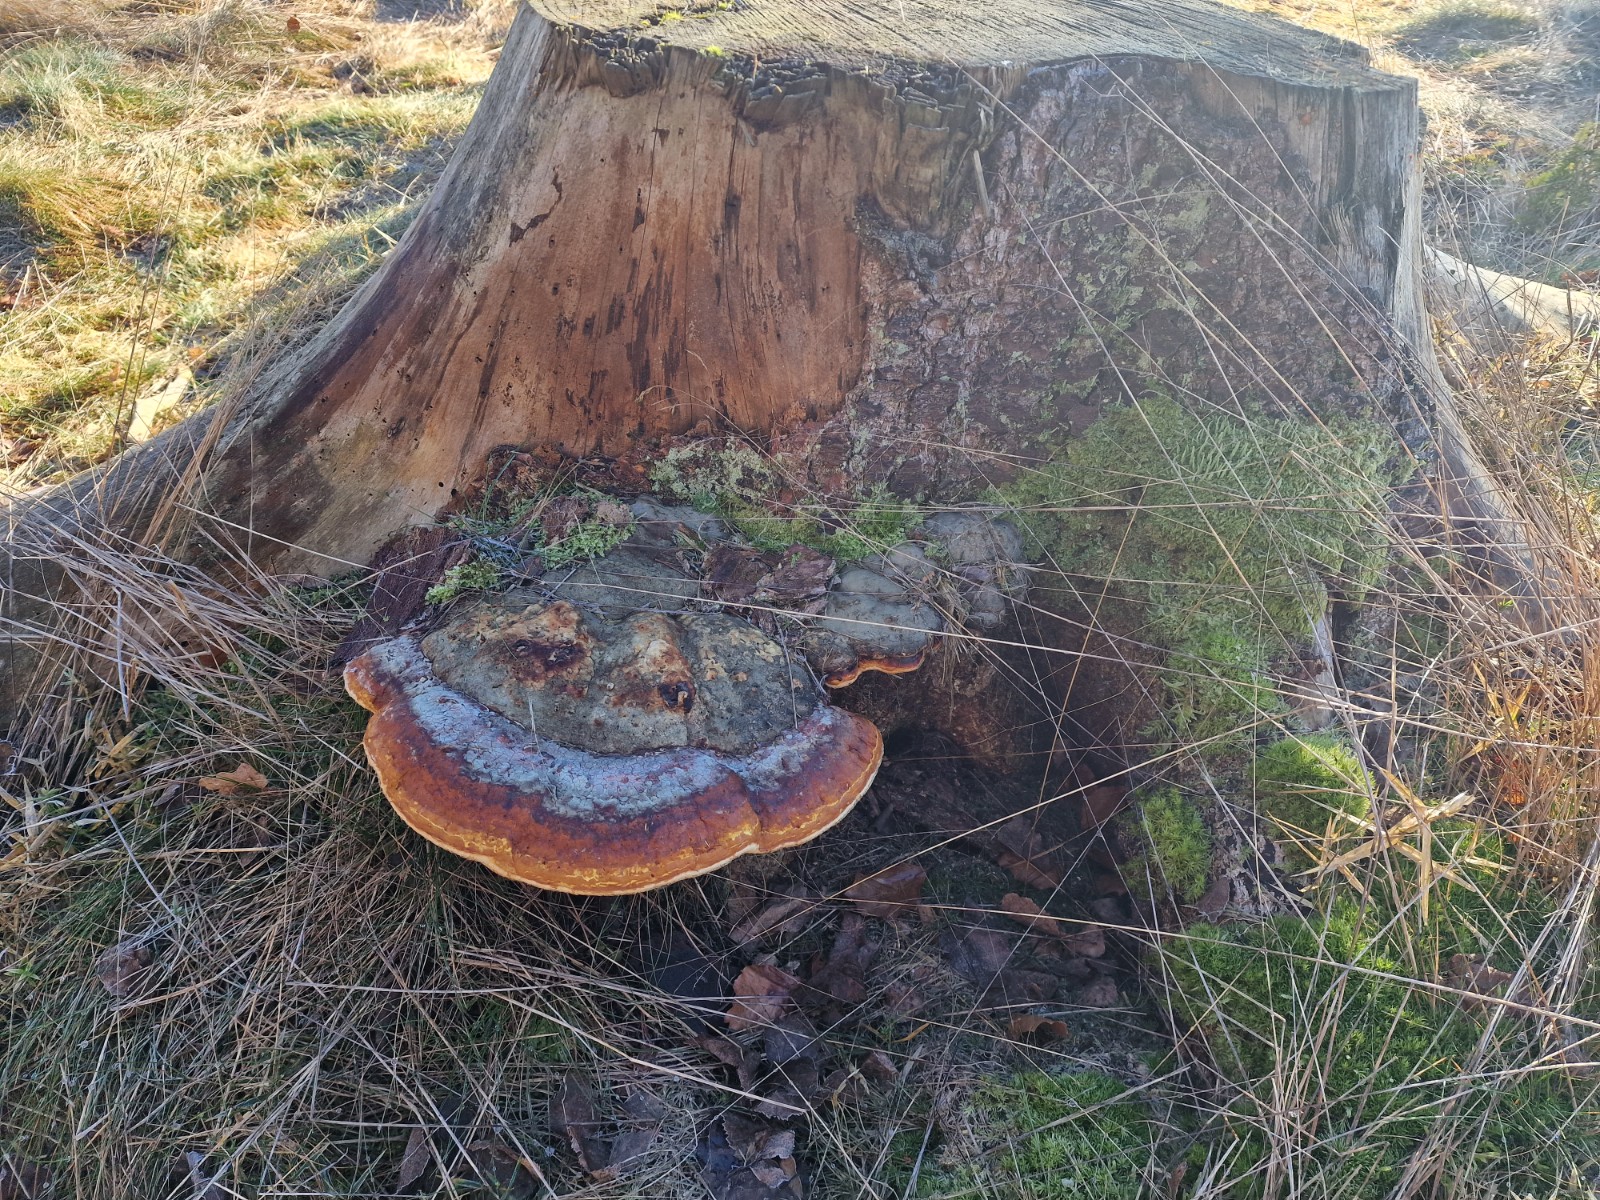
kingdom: Fungi
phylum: Basidiomycota
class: Agaricomycetes
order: Polyporales
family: Fomitopsidaceae
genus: Fomitopsis
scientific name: Fomitopsis pinicola
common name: randbæltet hovporesvamp
